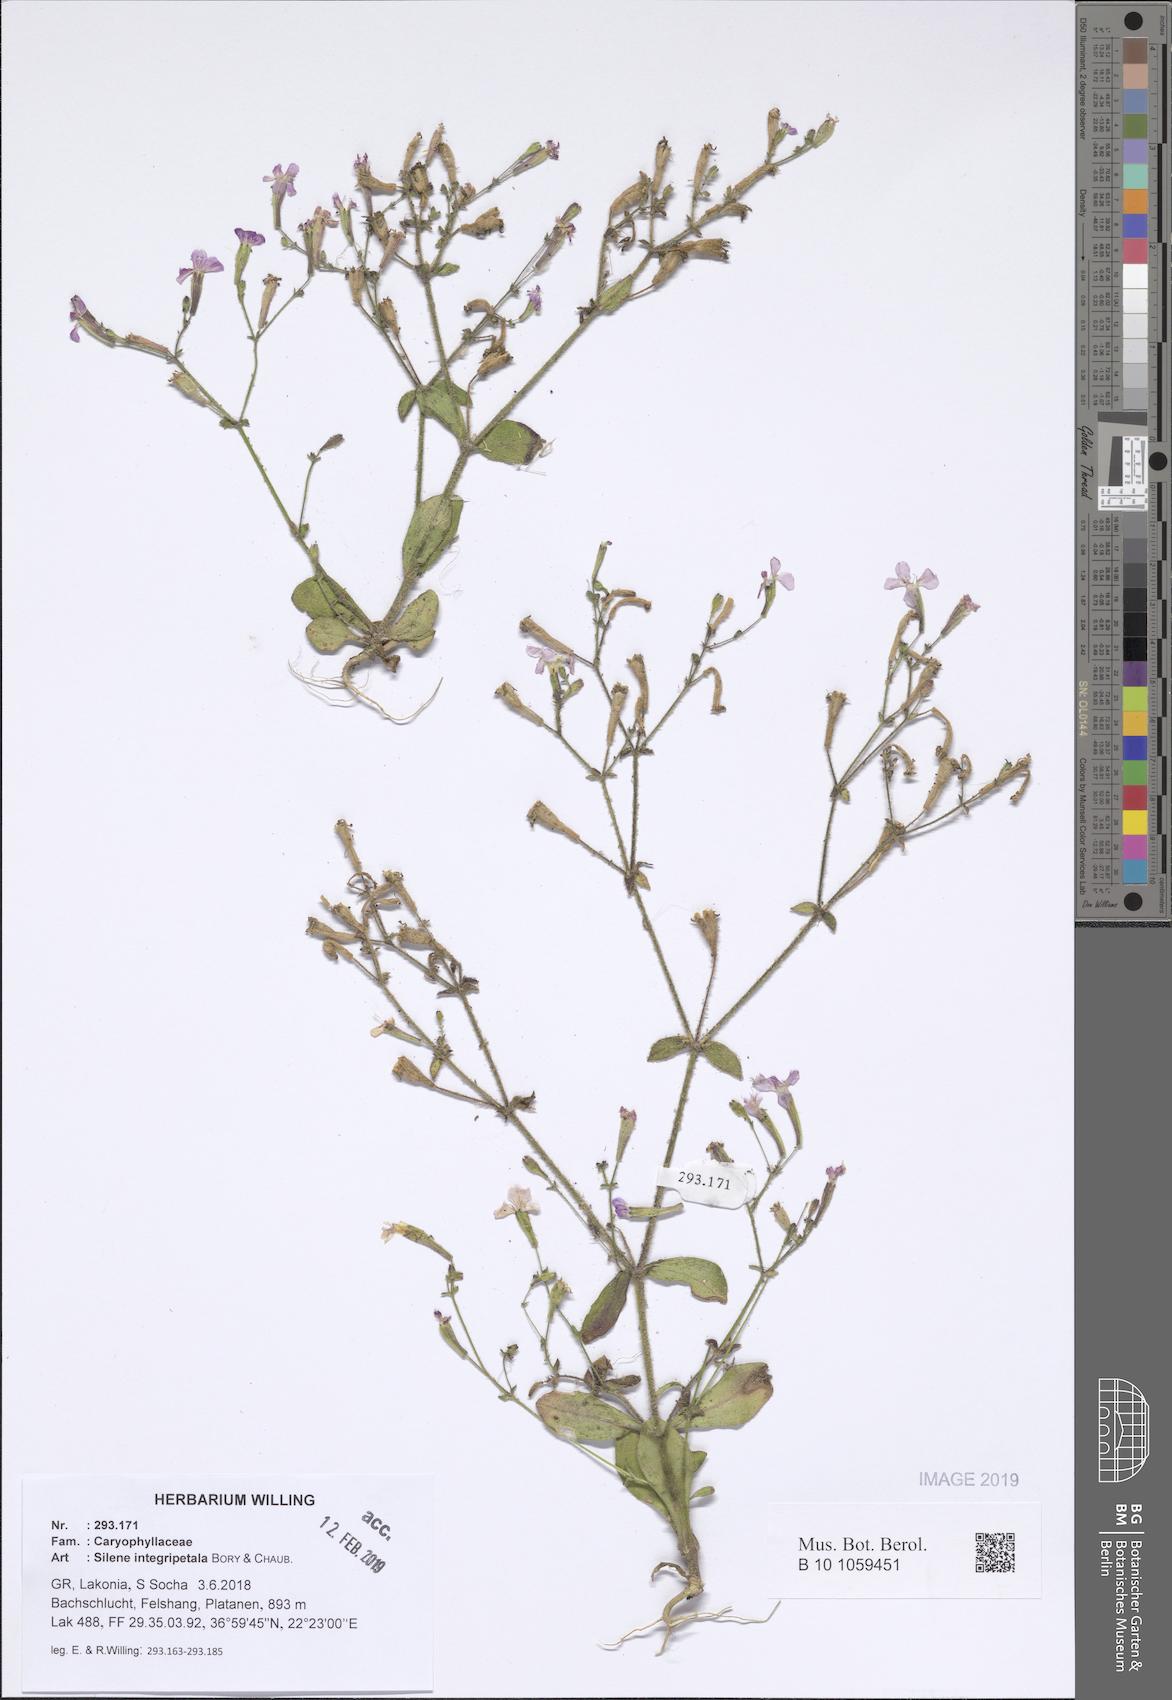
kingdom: Plantae
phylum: Tracheophyta
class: Magnoliopsida
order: Caryophyllales
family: Caryophyllaceae
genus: Silene
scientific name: Silene integripetala
